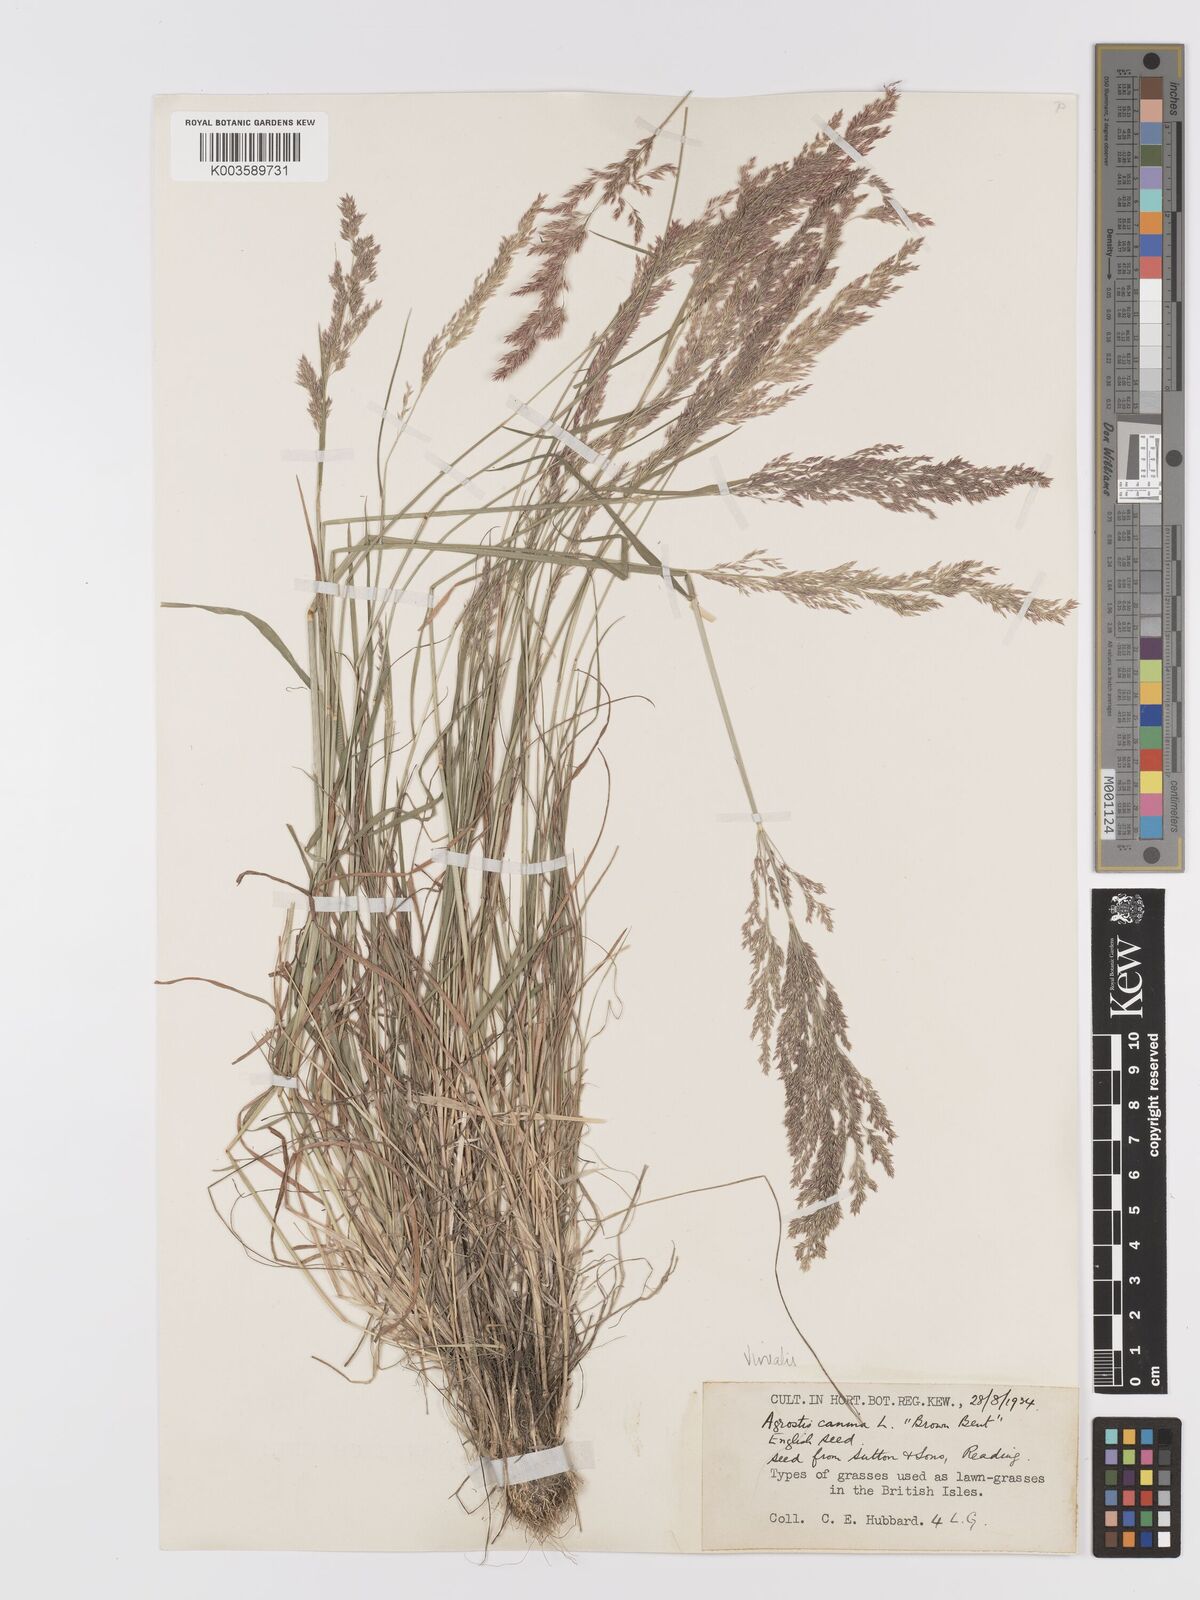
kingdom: Plantae
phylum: Tracheophyta
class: Liliopsida
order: Poales
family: Poaceae
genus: Agrostis
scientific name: Agrostis
